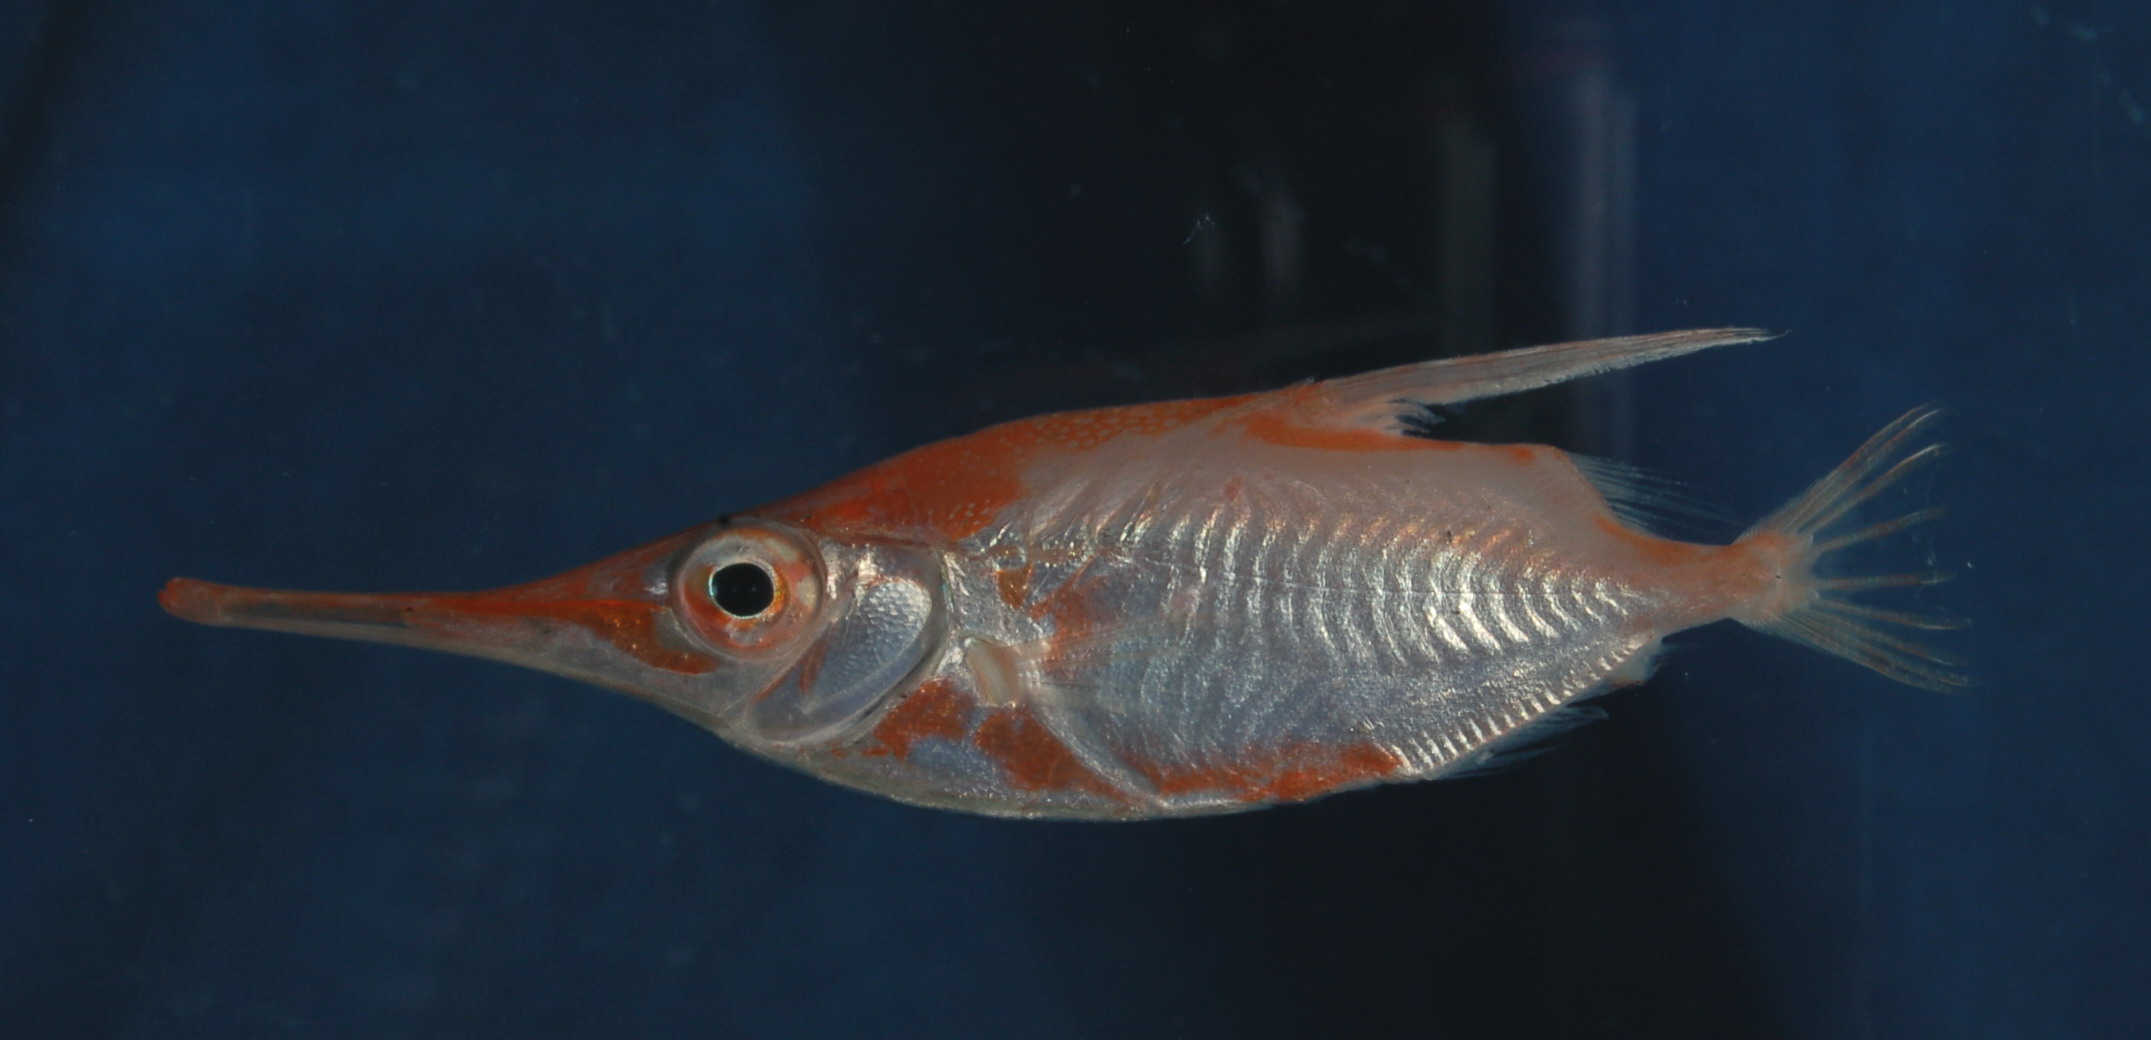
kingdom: Animalia
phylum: Chordata
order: Syngnathiformes
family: Centriscidae
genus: Macroramphosus
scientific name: Macroramphosus scolopax
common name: Snipe-fish
